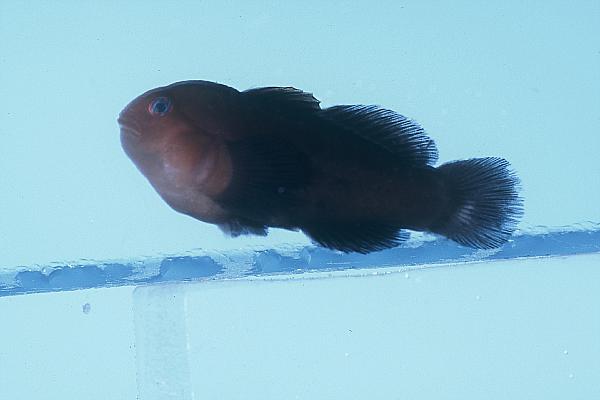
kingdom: Animalia
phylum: Chordata
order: Perciformes
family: Gobiidae
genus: Gobiodon
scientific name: Gobiodon unicolor
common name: Unicolor coralgoby
